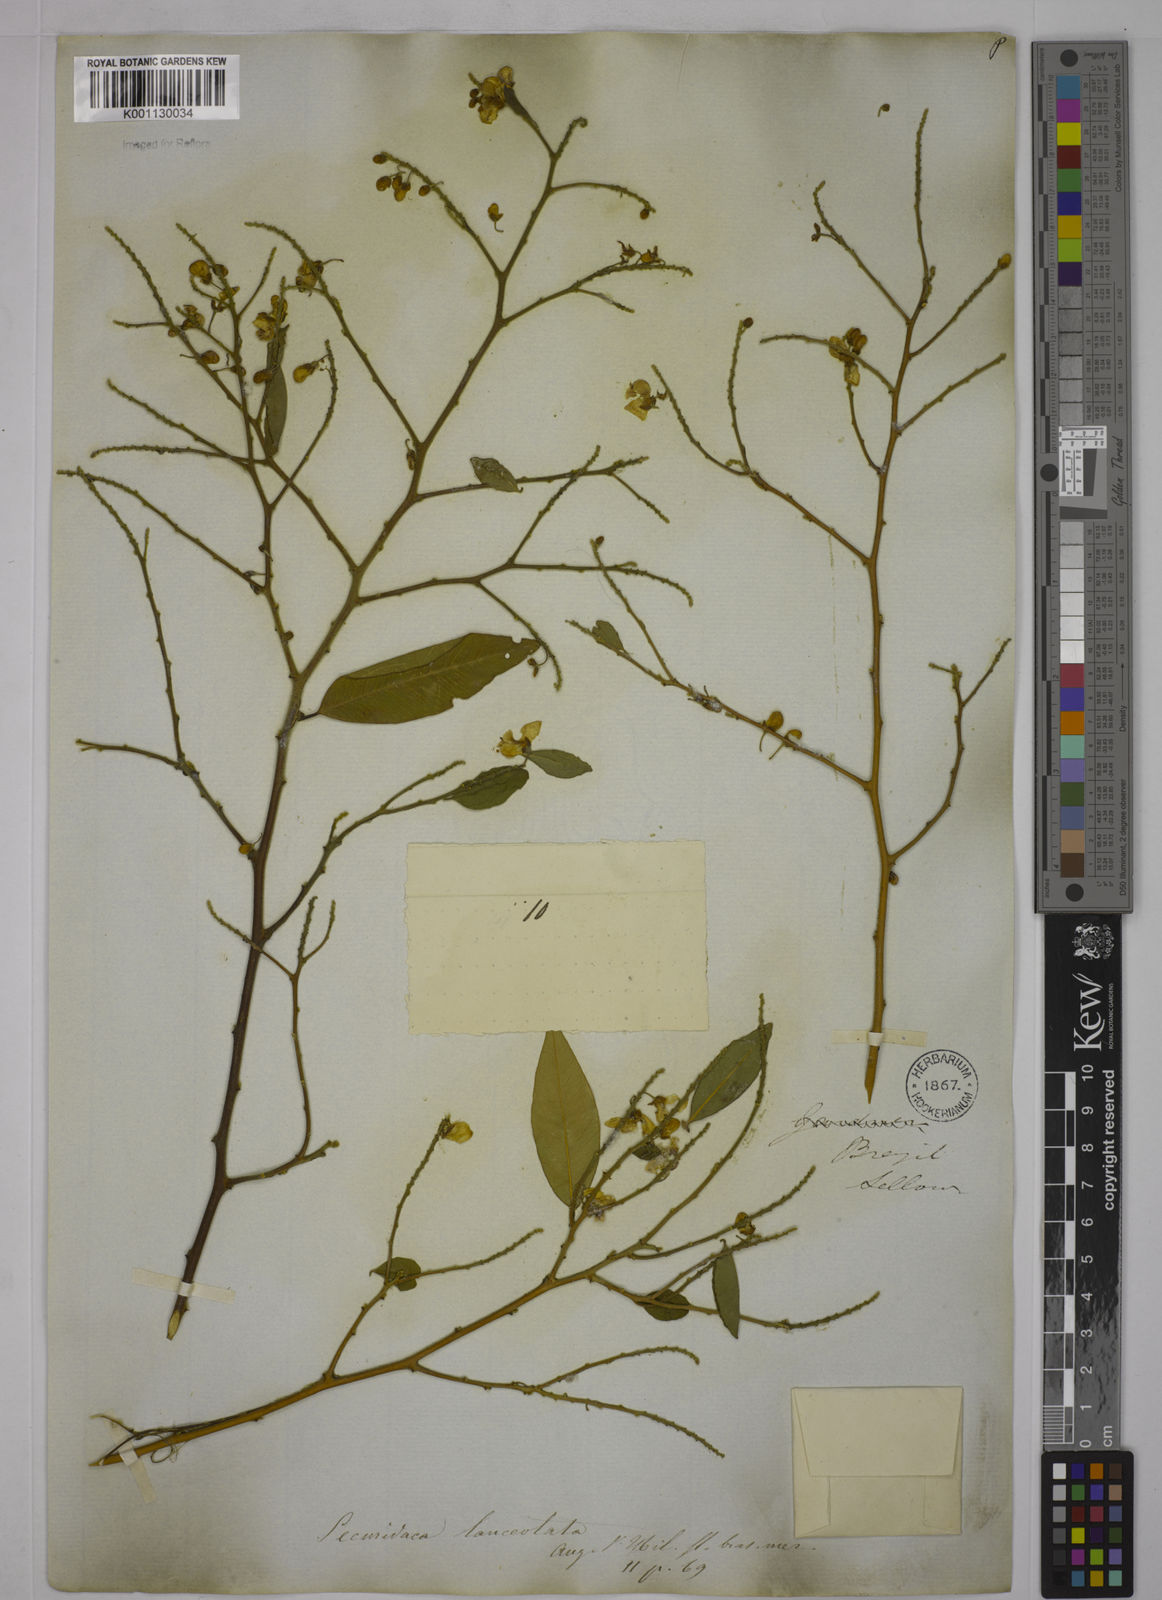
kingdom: Plantae
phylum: Tracheophyta
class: Magnoliopsida
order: Fabales
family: Polygalaceae
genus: Securidaca
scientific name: Securidaca lanceolata
